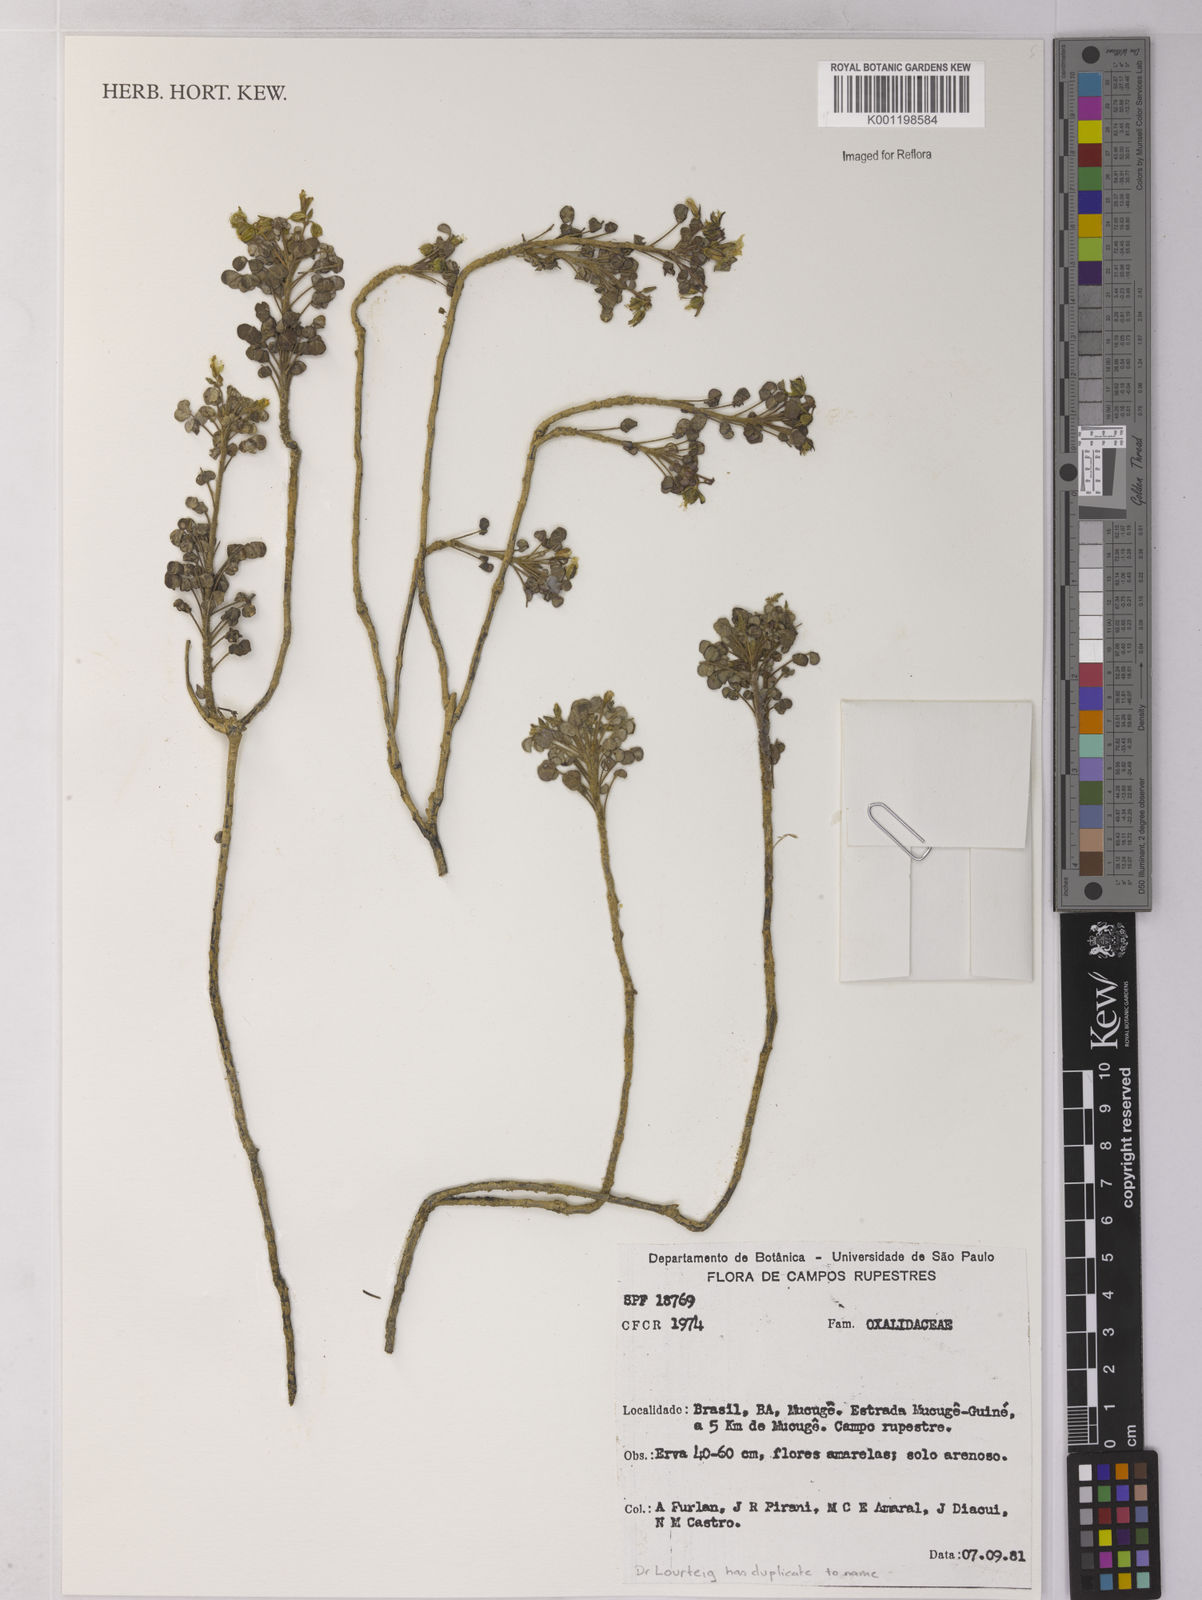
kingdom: Plantae
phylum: Tracheophyta
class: Magnoliopsida
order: Oxalidales
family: Oxalidaceae
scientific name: Oxalidaceae
